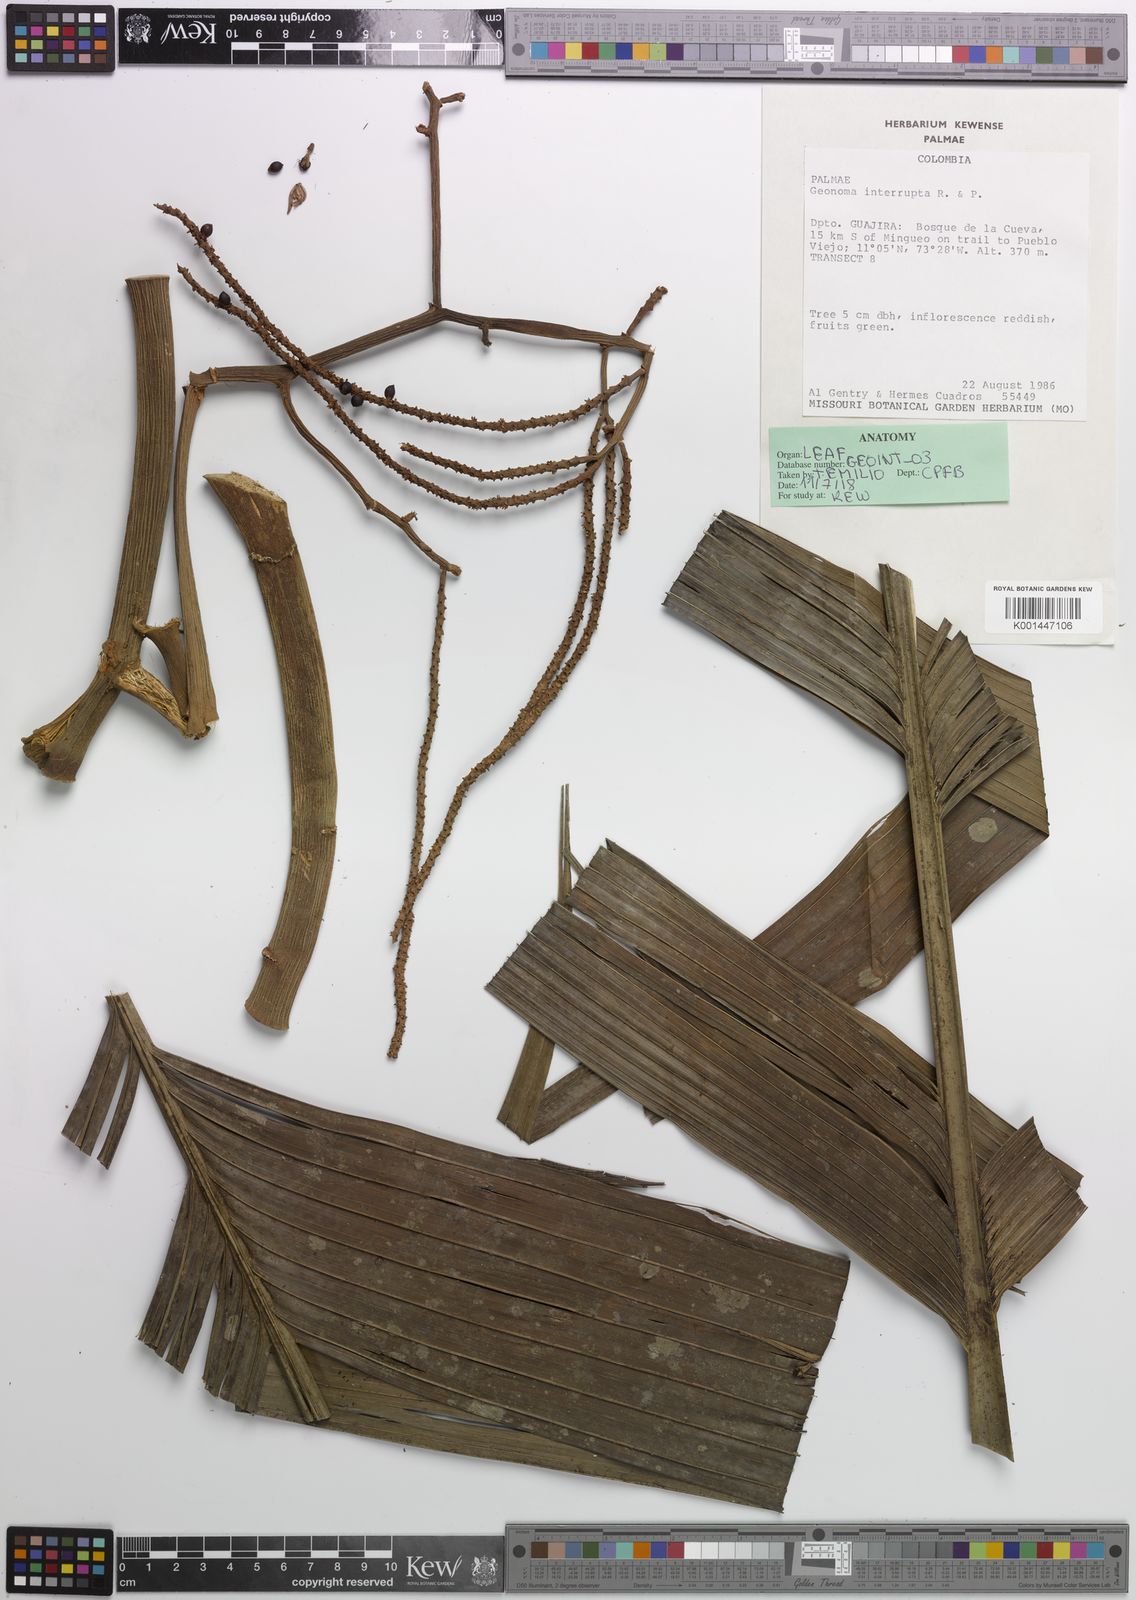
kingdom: Plantae
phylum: Tracheophyta
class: Liliopsida
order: Arecales
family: Arecaceae
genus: Geonoma
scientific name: Geonoma interrupta
